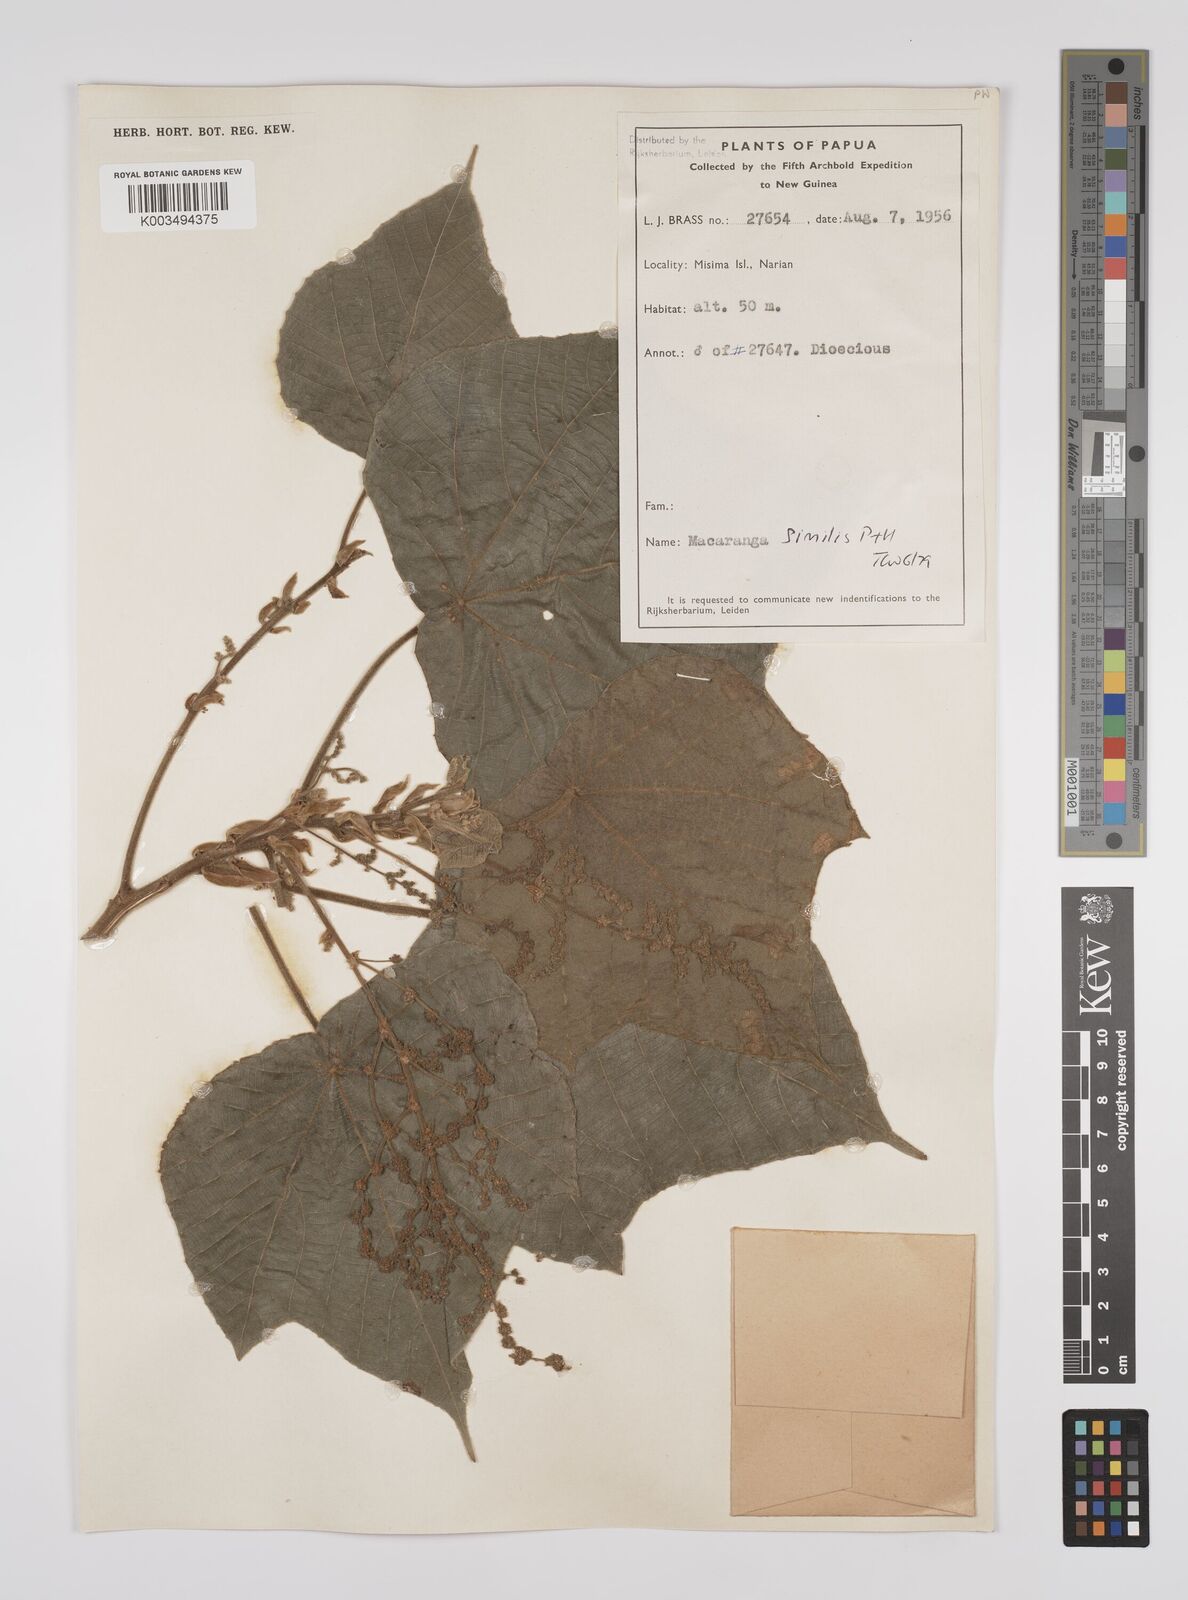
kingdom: Plantae
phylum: Tracheophyta
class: Magnoliopsida
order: Malpighiales
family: Euphorbiaceae
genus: Macaranga
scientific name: Macaranga similis
